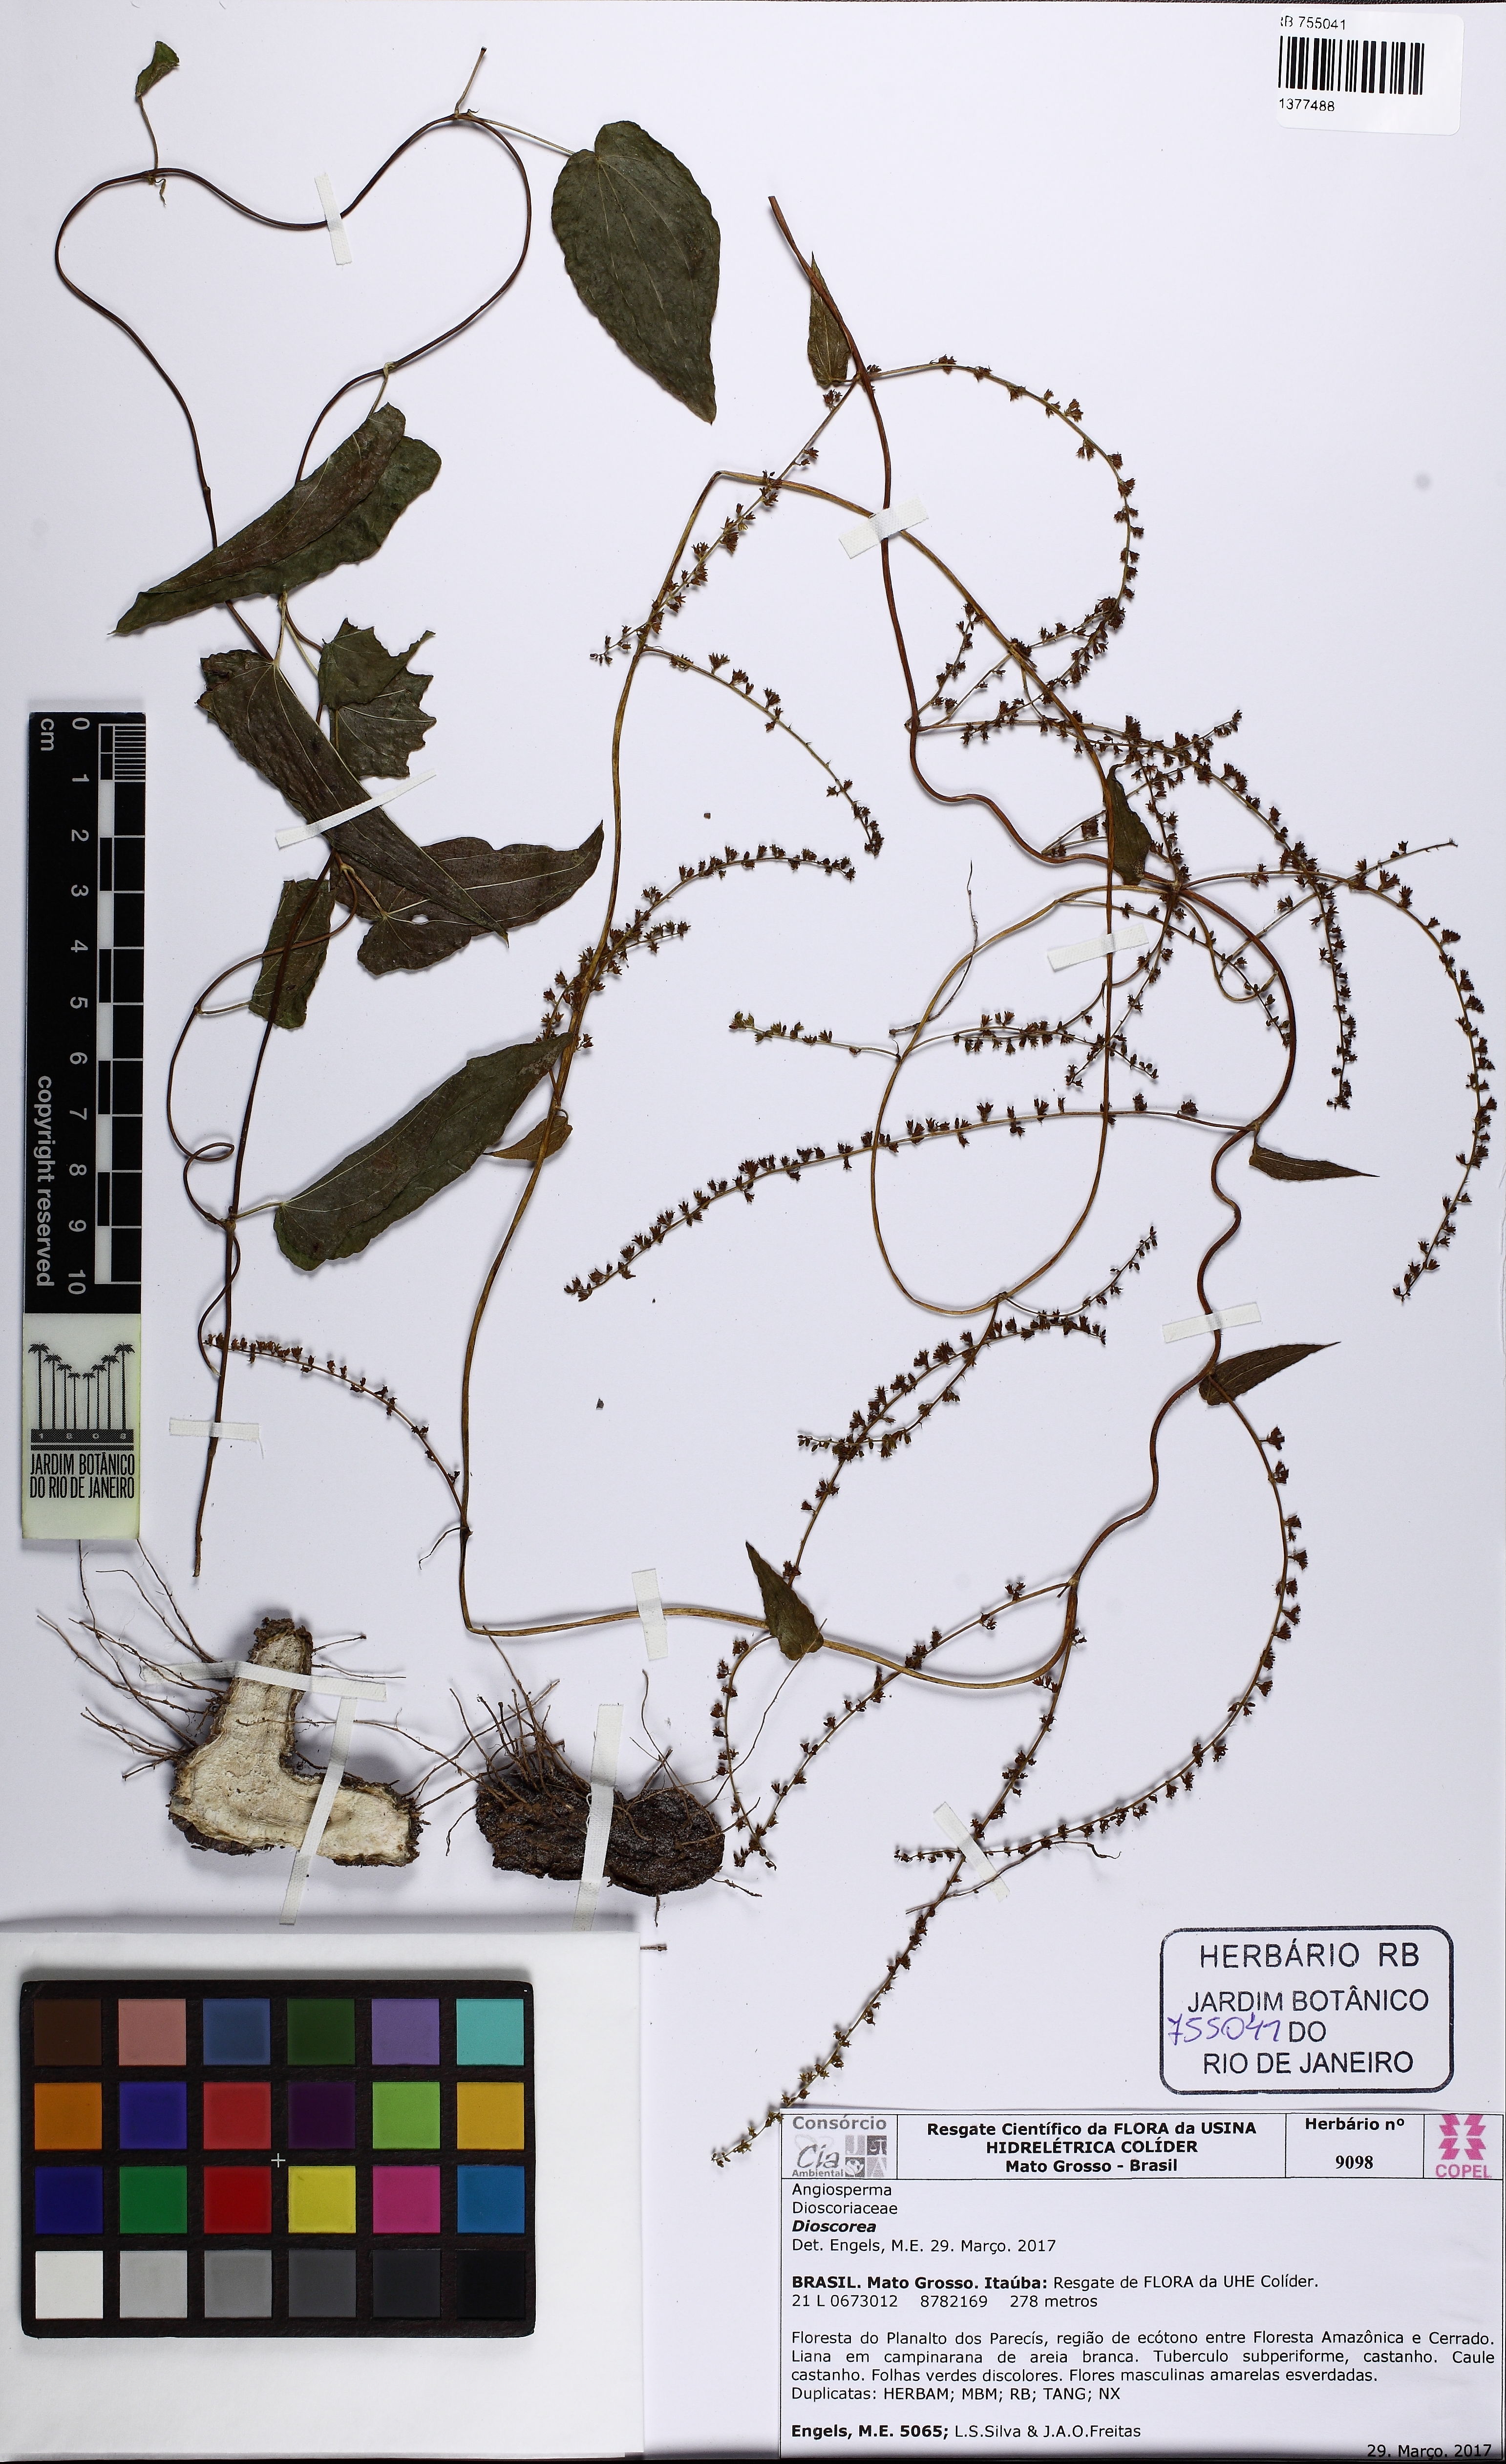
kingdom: Plantae
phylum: Tracheophyta
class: Liliopsida
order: Dioscoreales
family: Dioscoreaceae
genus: Dioscorea
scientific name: Dioscorea
